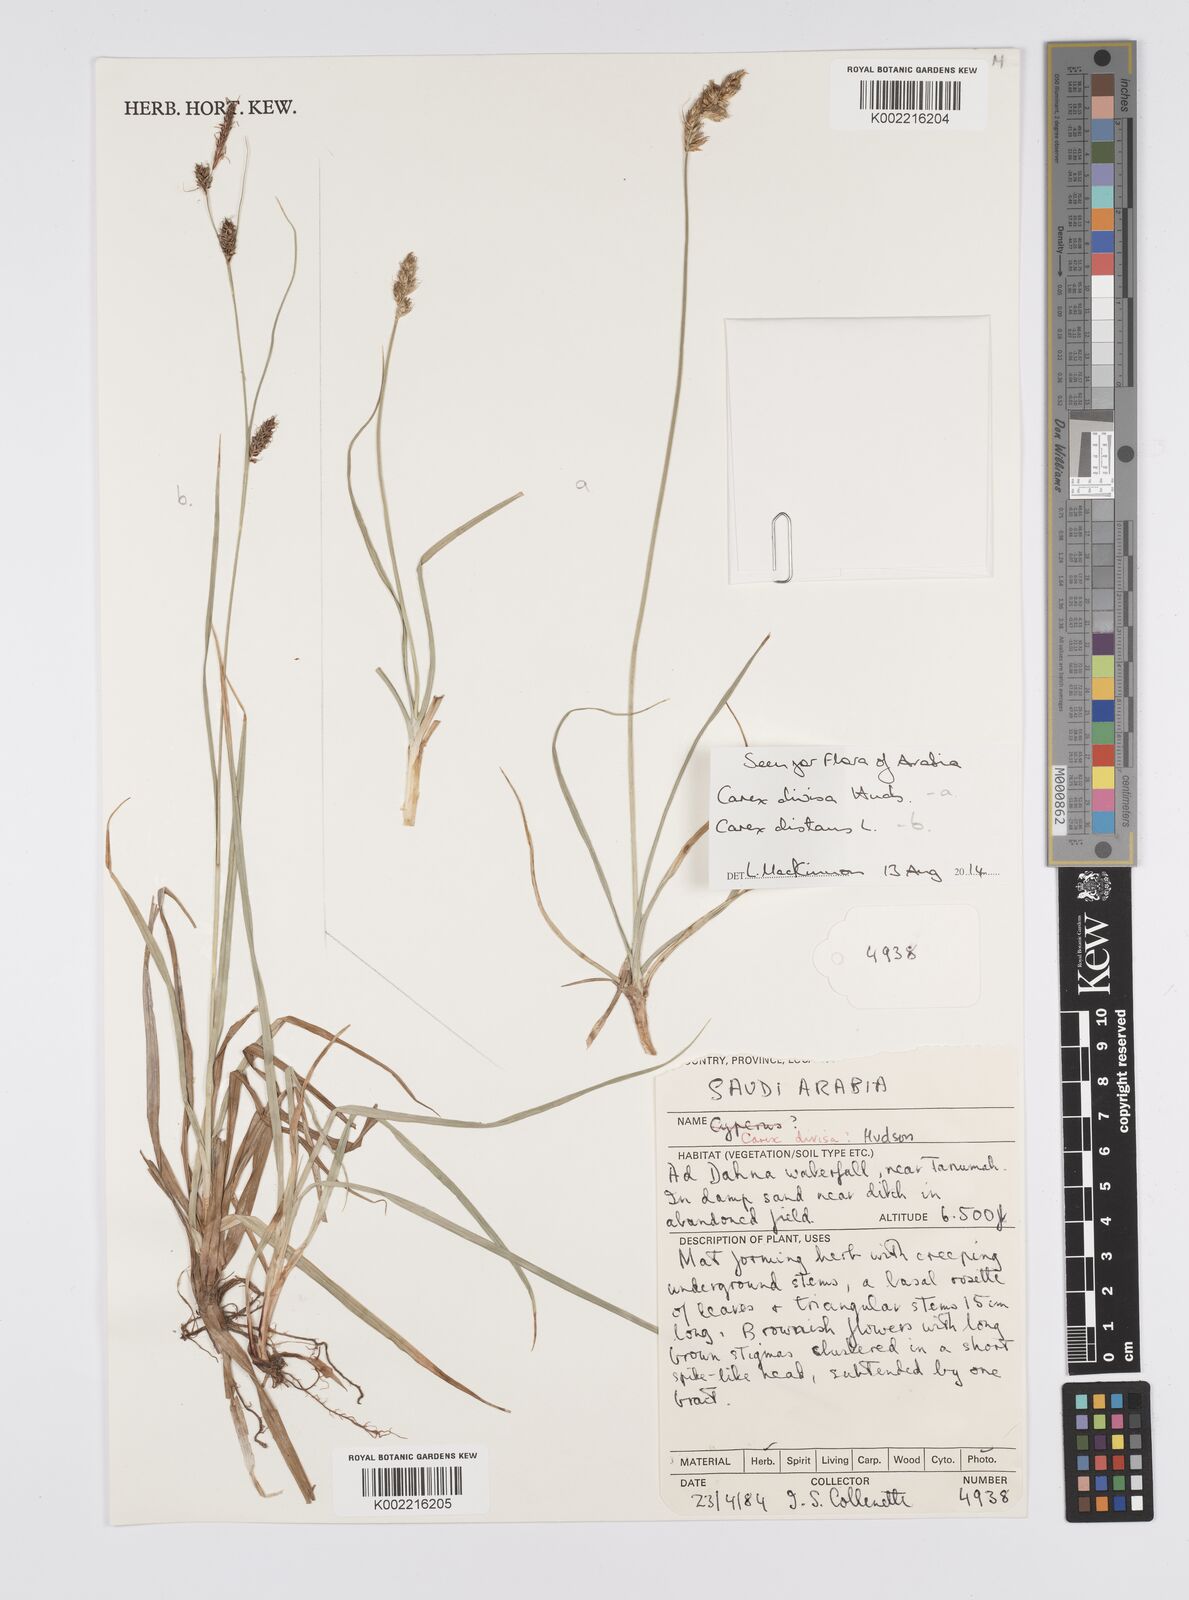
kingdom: Plantae
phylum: Tracheophyta
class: Liliopsida
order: Poales
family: Cyperaceae
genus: Carex
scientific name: Carex divisa
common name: Divided sedge
